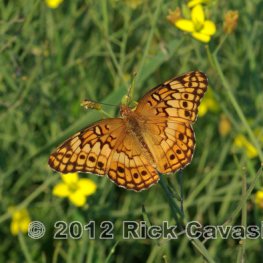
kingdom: Animalia
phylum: Arthropoda
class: Insecta
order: Lepidoptera
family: Nymphalidae
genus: Euptoieta
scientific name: Euptoieta claudia
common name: Variegated Fritillary
